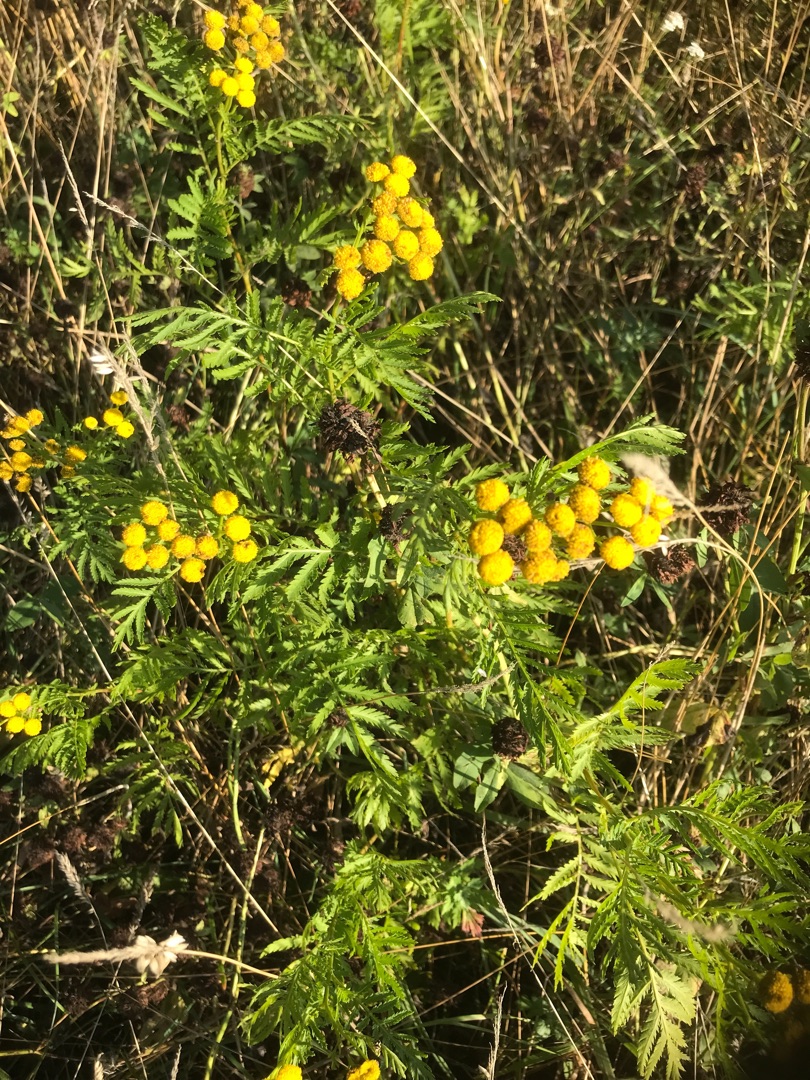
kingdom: Plantae
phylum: Tracheophyta
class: Magnoliopsida
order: Asterales
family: Asteraceae
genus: Tanacetum
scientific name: Tanacetum vulgare
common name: Rejnfan
